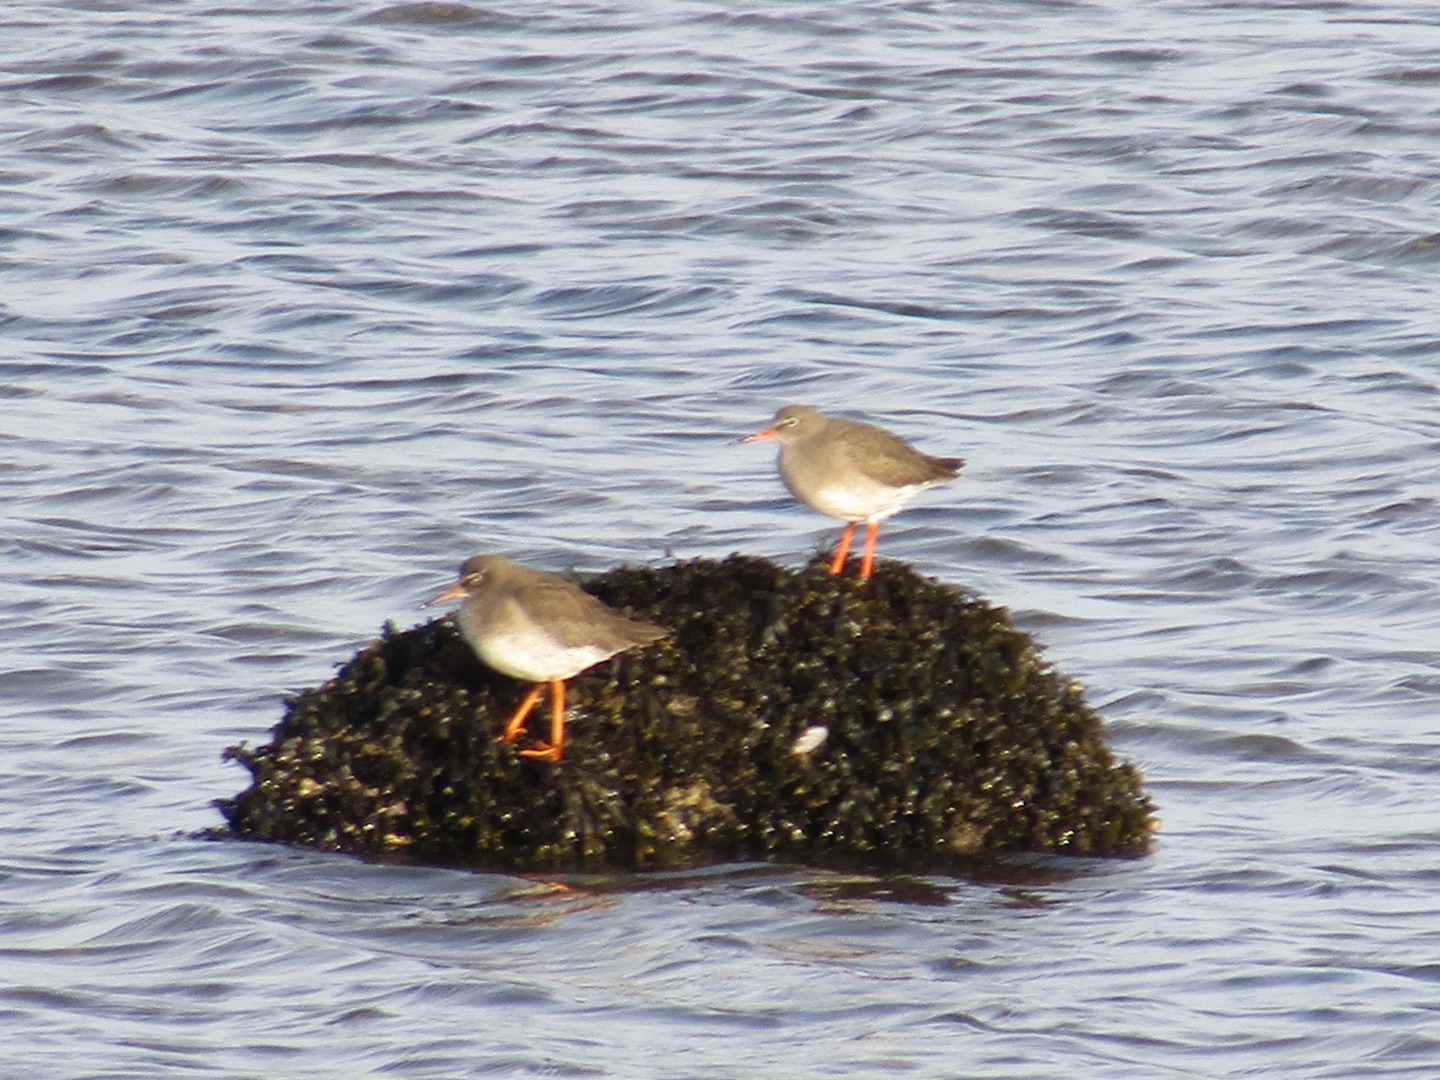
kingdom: Animalia
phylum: Chordata
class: Aves
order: Charadriiformes
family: Scolopacidae
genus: Tringa
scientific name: Tringa totanus
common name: Rødben
